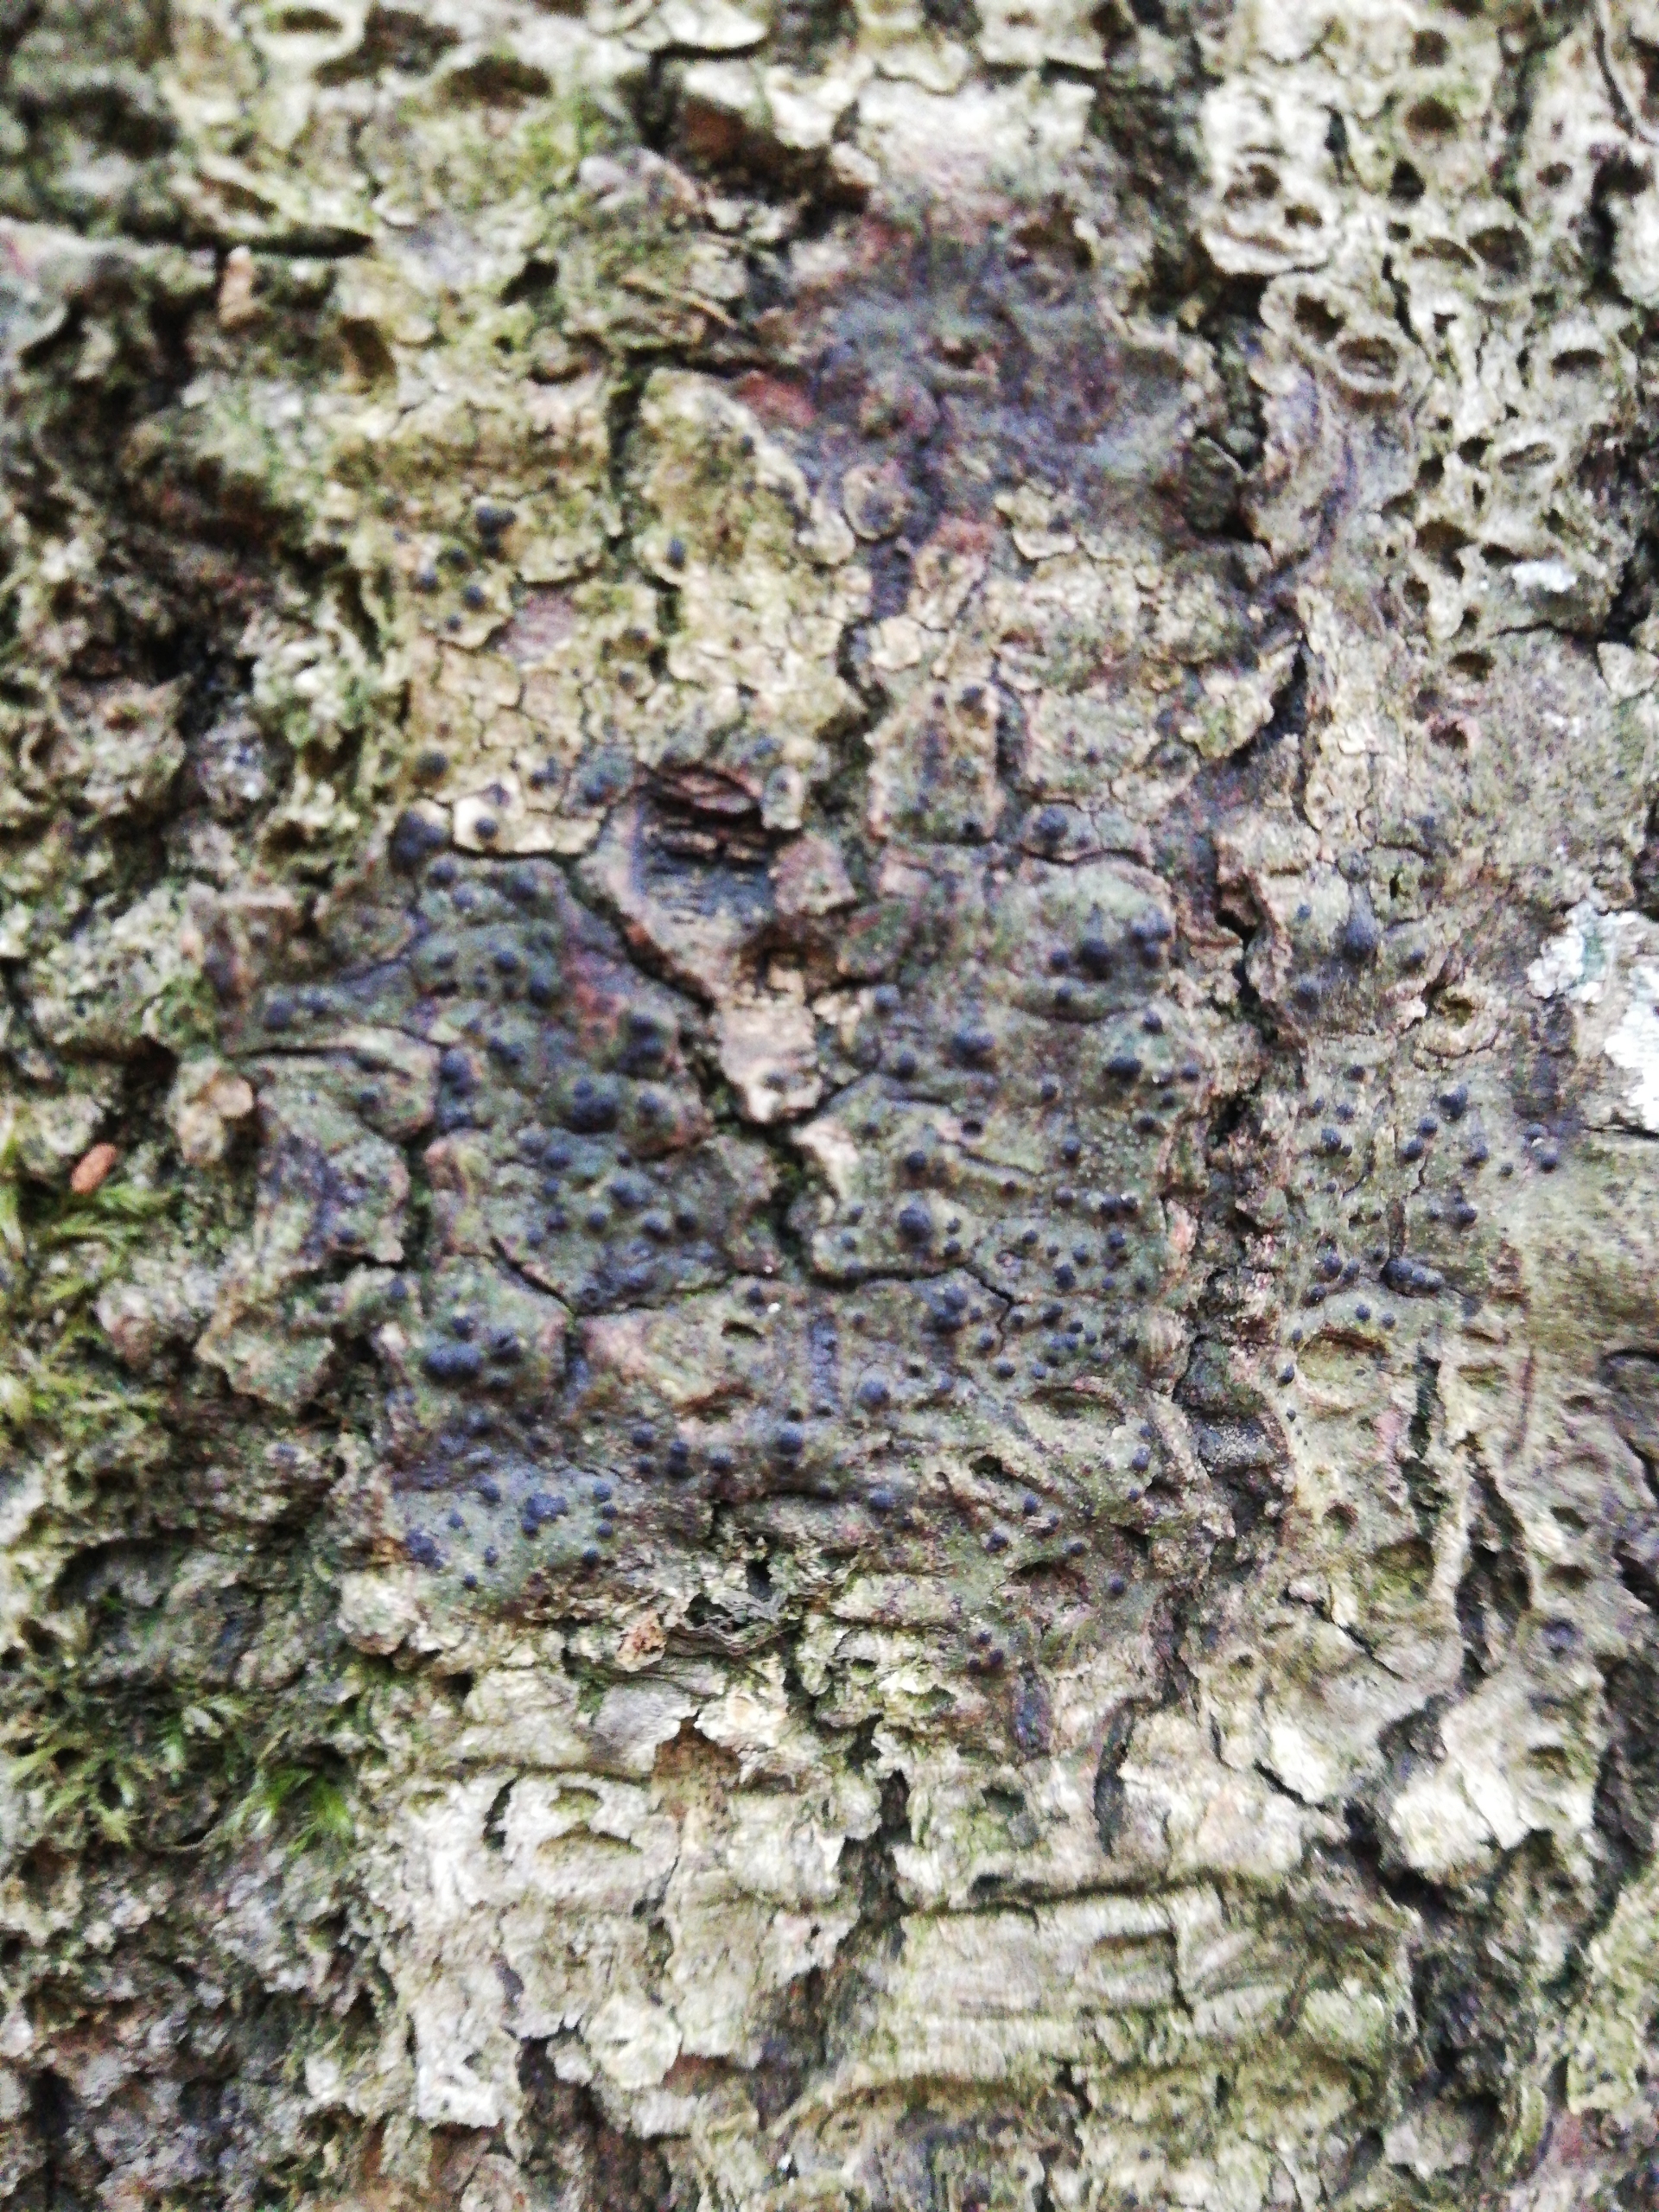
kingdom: Fungi
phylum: Ascomycota
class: Eurotiomycetes
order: Pyrenulales
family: Pyrenulaceae
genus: Pyrenula
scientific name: Pyrenula nitida
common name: Glinsende kernelav
